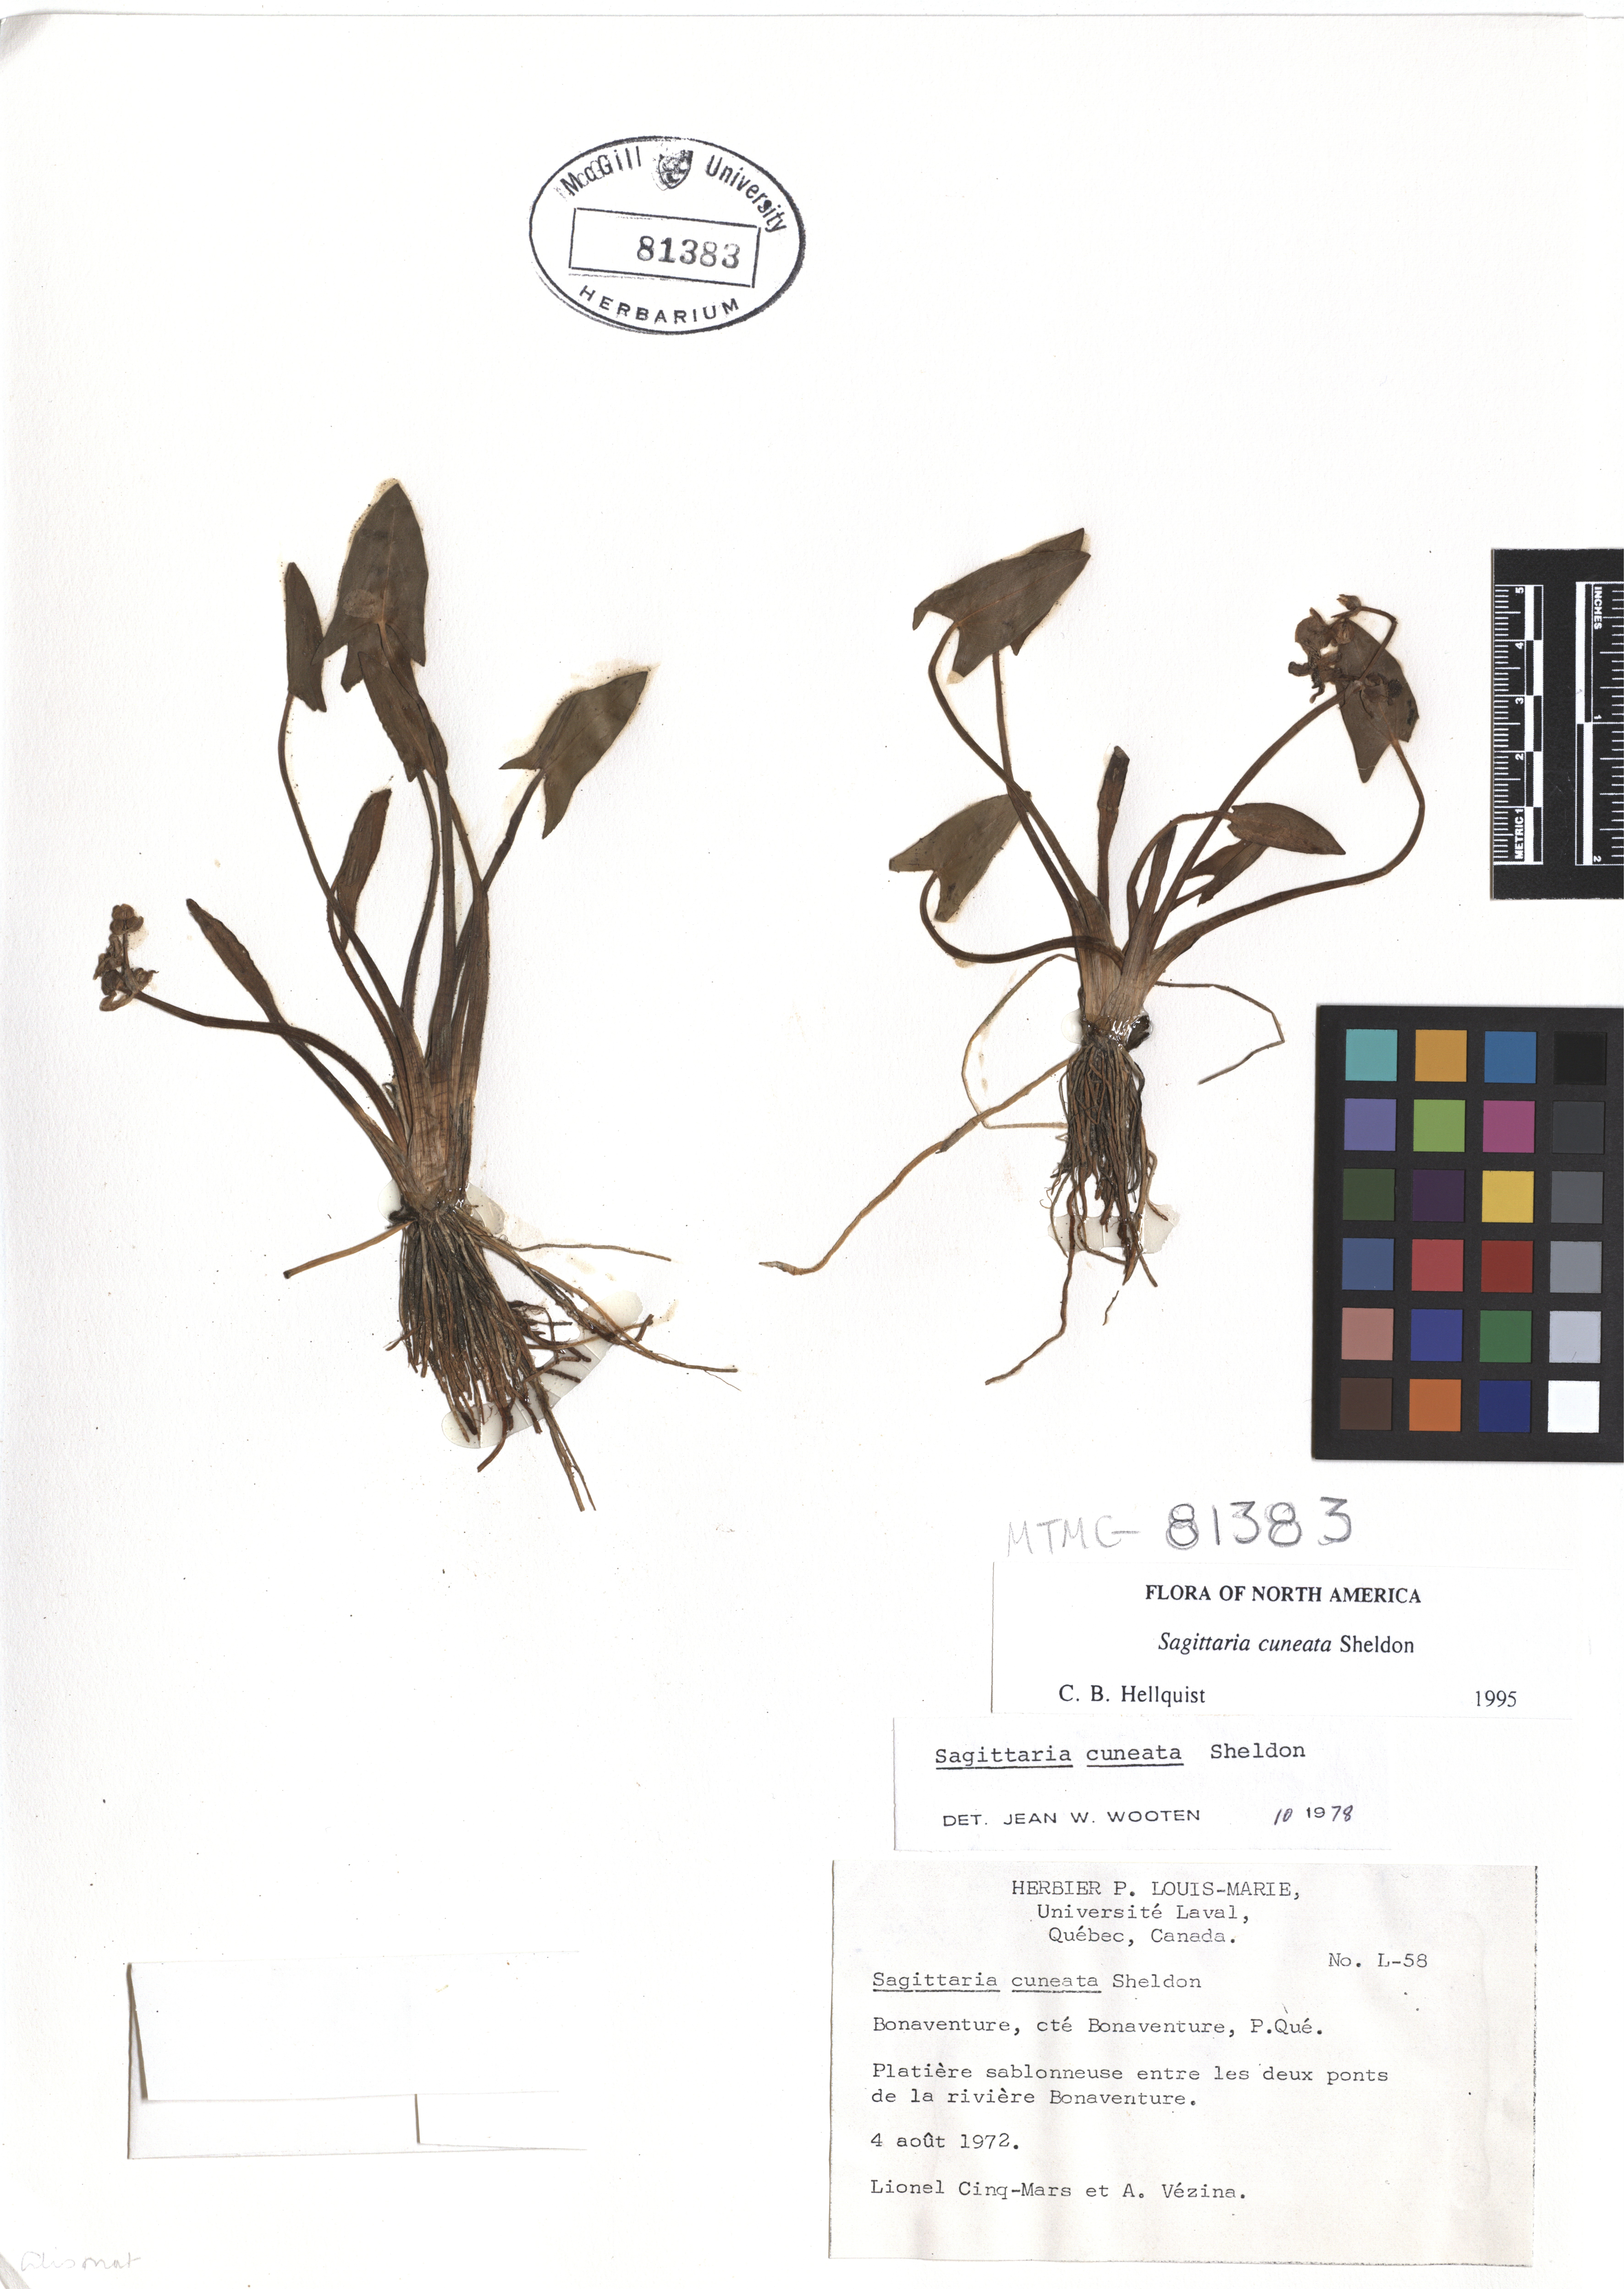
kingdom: Plantae
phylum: Tracheophyta
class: Liliopsida
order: Alismatales
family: Alismataceae
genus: Sagittaria
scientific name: Sagittaria cuneata
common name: Northern arrowhead
